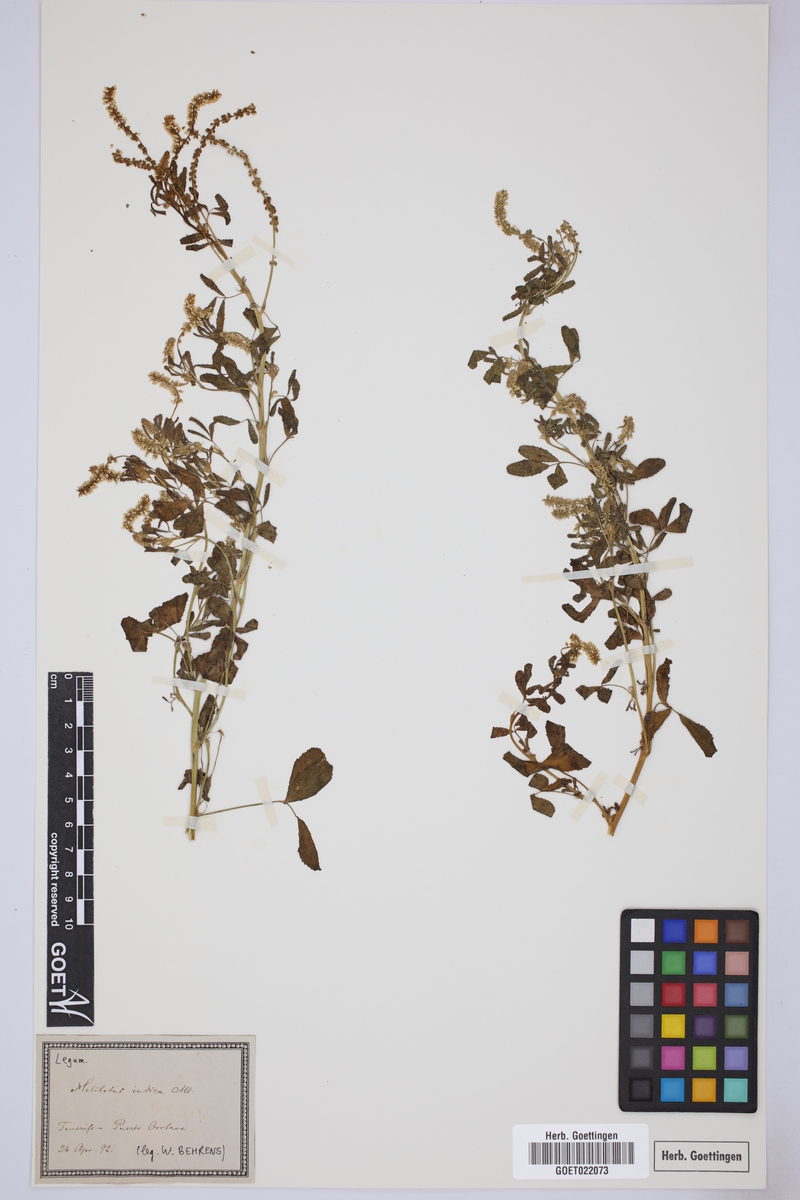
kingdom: Plantae
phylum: Tracheophyta
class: Magnoliopsida
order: Fabales
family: Fabaceae
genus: Melilotus
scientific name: Melilotus indicus
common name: Small melilot
